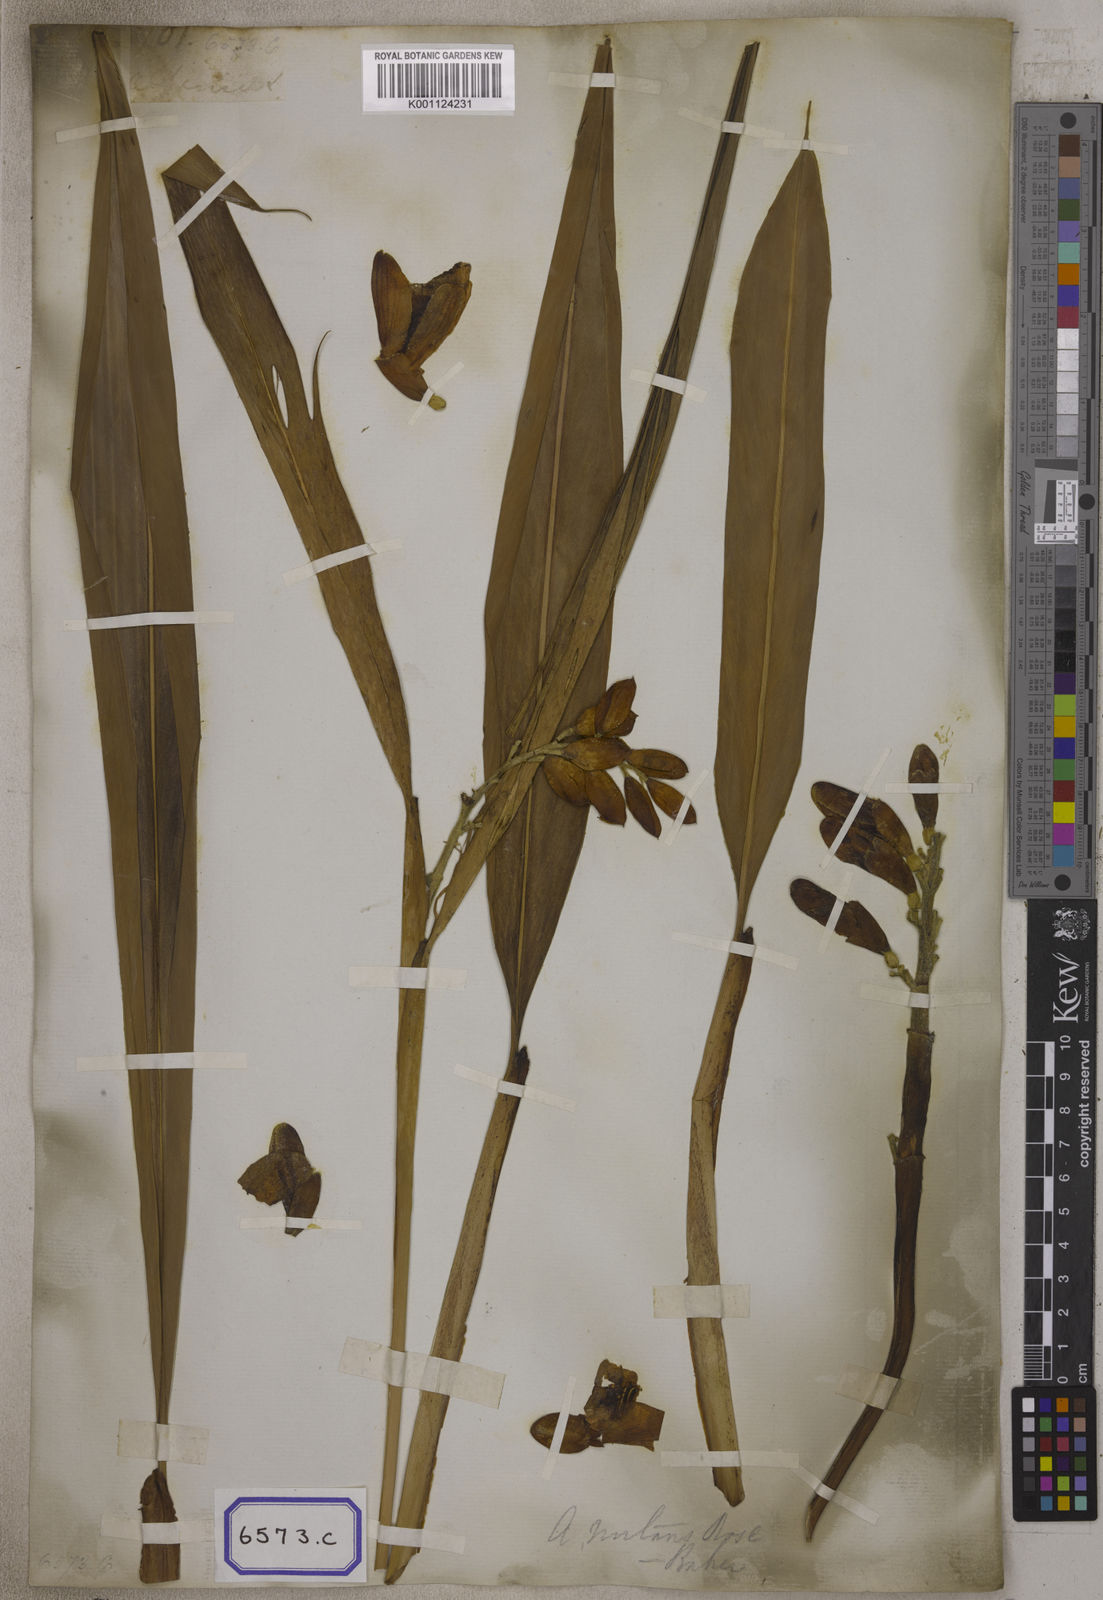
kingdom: Plantae
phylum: Tracheophyta
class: Liliopsida
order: Zingiberales
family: Zingiberaceae
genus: Alpinia
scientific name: Alpinia malaccensis
